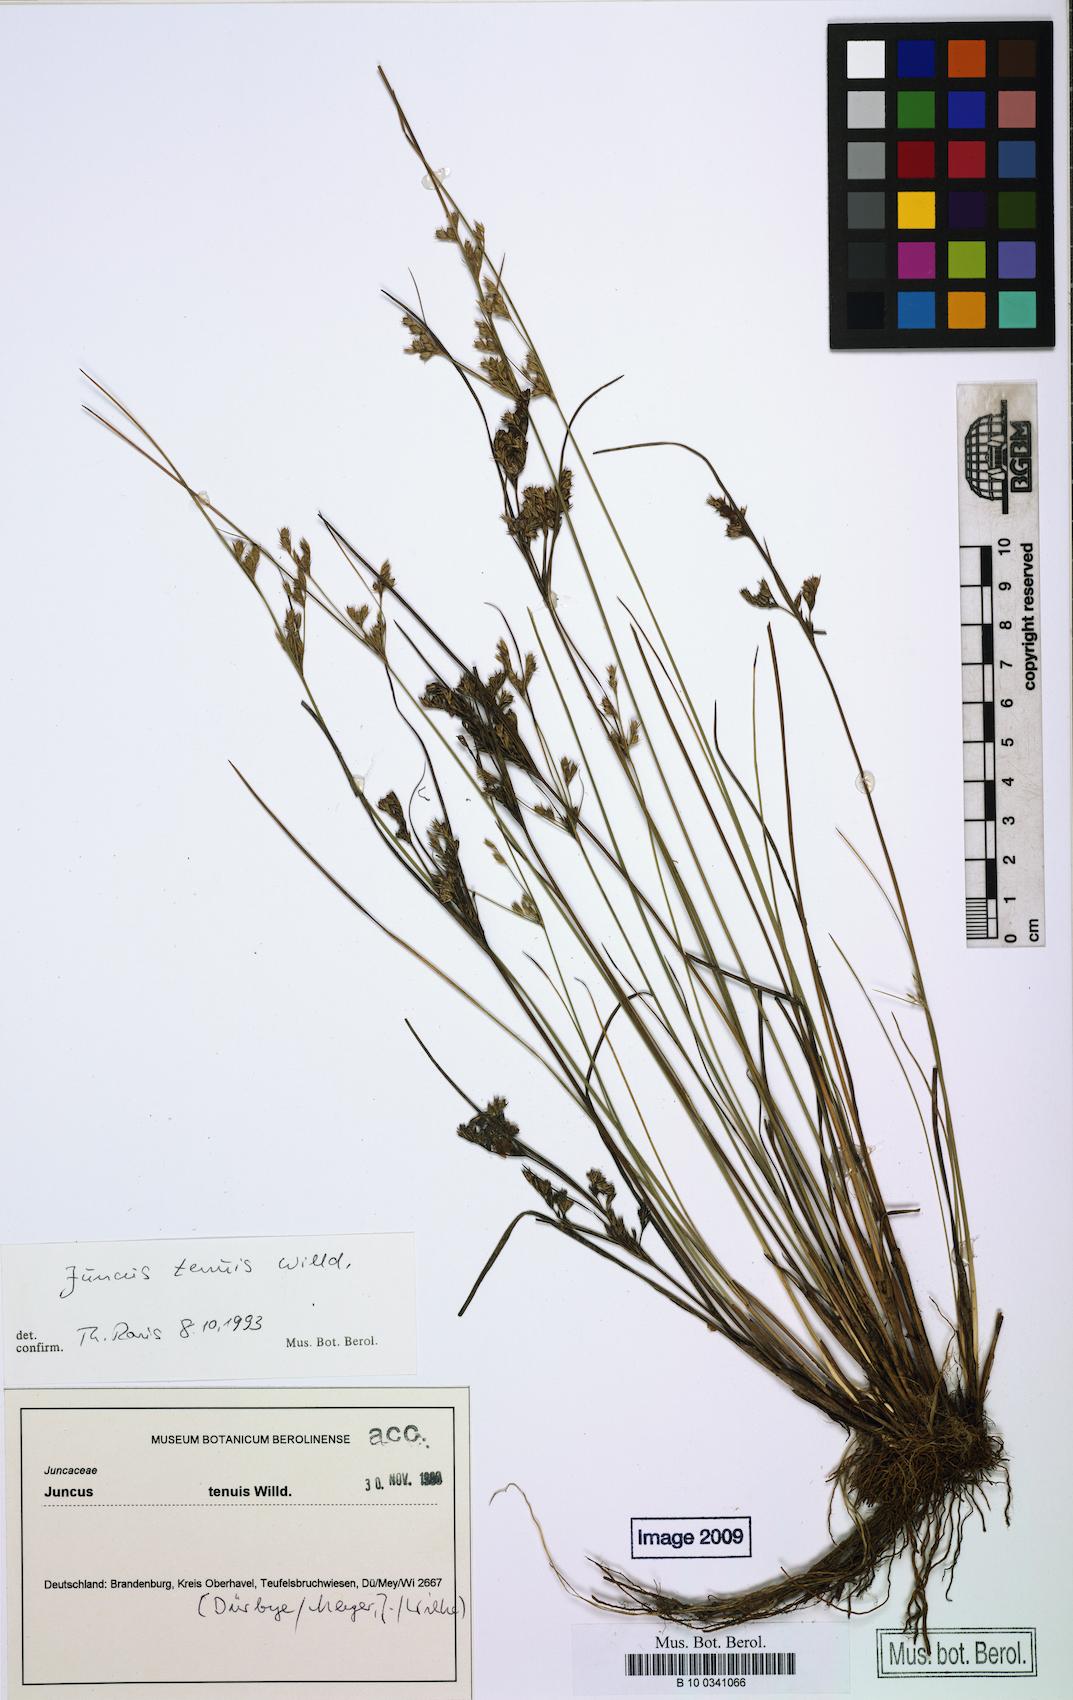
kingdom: Plantae
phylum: Tracheophyta
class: Liliopsida
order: Poales
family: Juncaceae
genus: Juncus
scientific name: Juncus tenuis
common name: Slender rush
